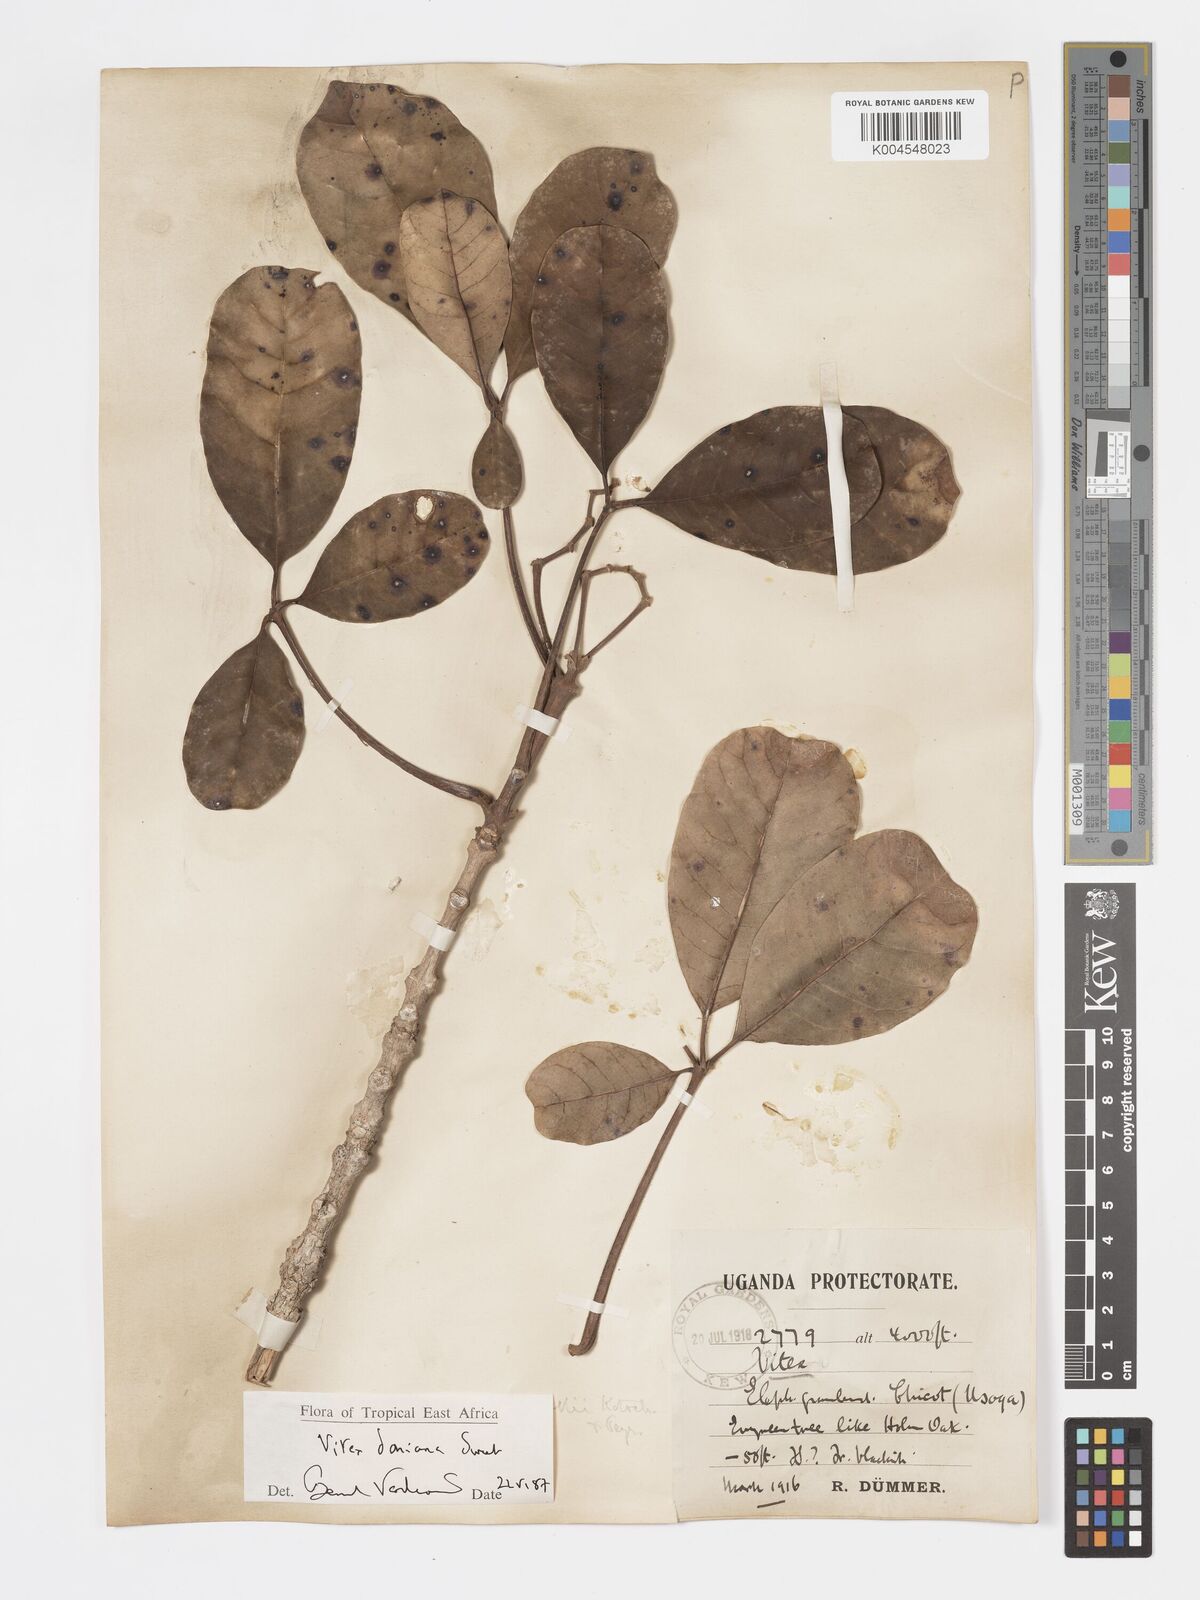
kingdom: Plantae
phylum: Tracheophyta
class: Magnoliopsida
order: Lamiales
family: Lamiaceae
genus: Vitex
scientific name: Vitex doniana
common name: Black plum
